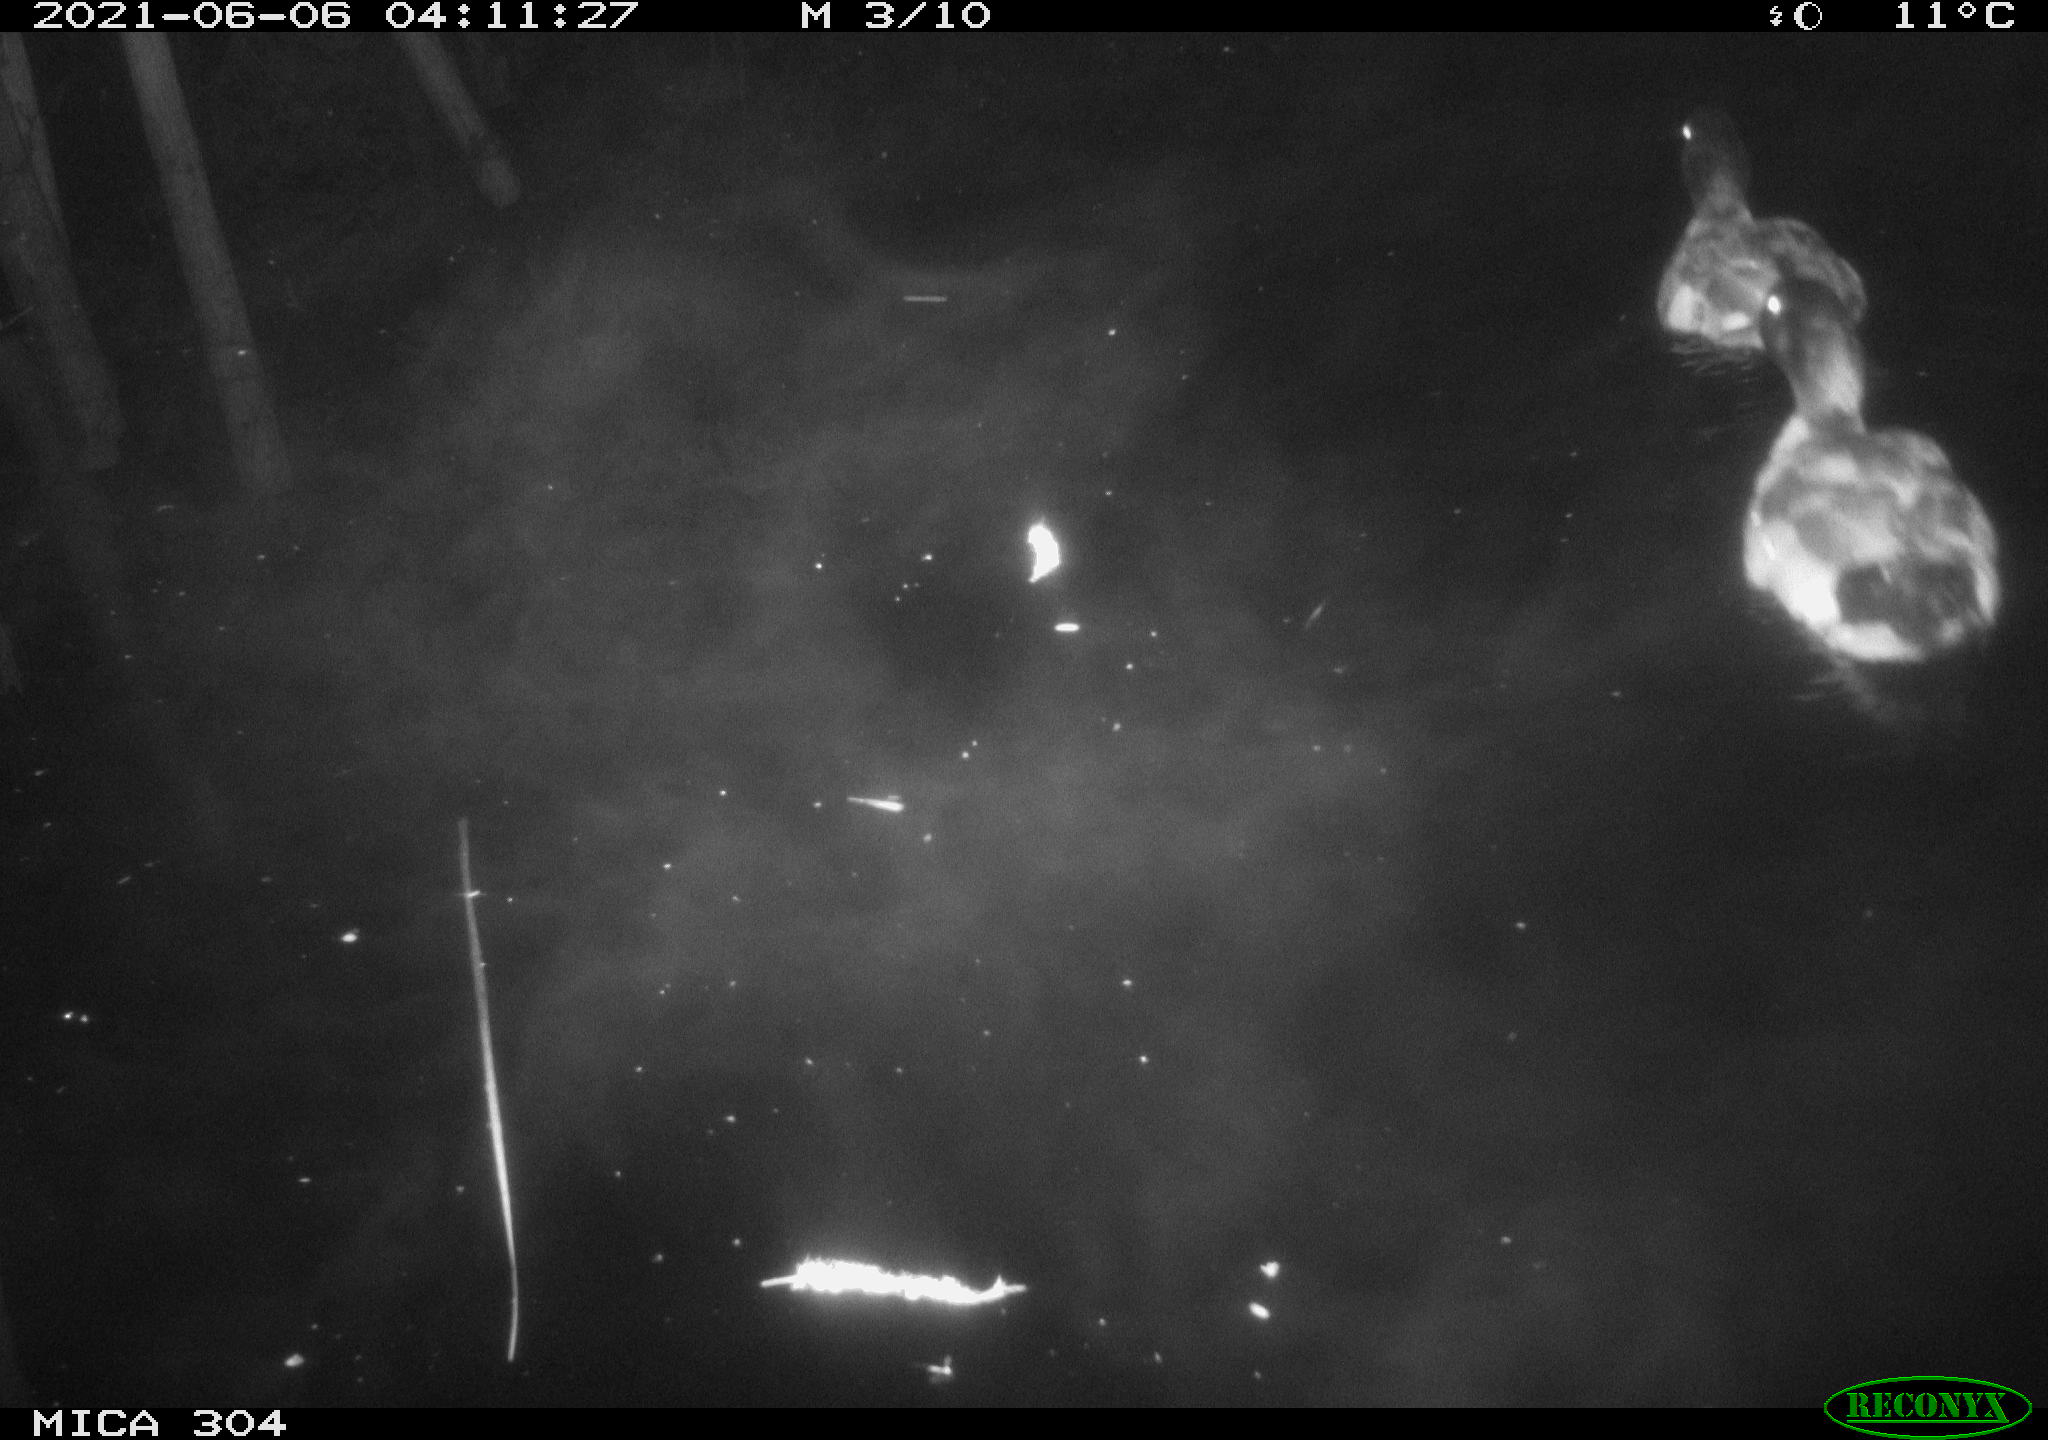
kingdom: Animalia
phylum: Chordata
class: Aves
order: Anseriformes
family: Anatidae
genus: Anas
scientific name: Anas platyrhynchos
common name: Mallard
